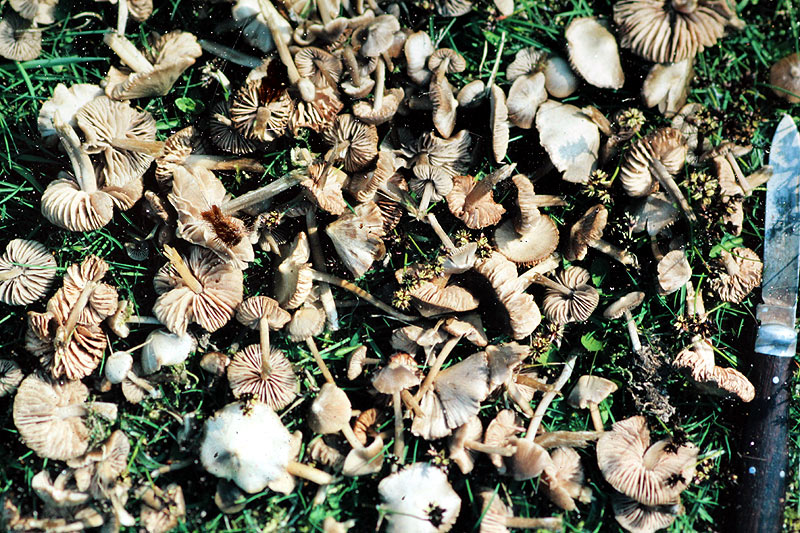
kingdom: Fungi
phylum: Basidiomycota
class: Agaricomycetes
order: Agaricales
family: Entolomataceae
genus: Entoloma
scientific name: Entoloma vernum
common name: vår-rødblad
